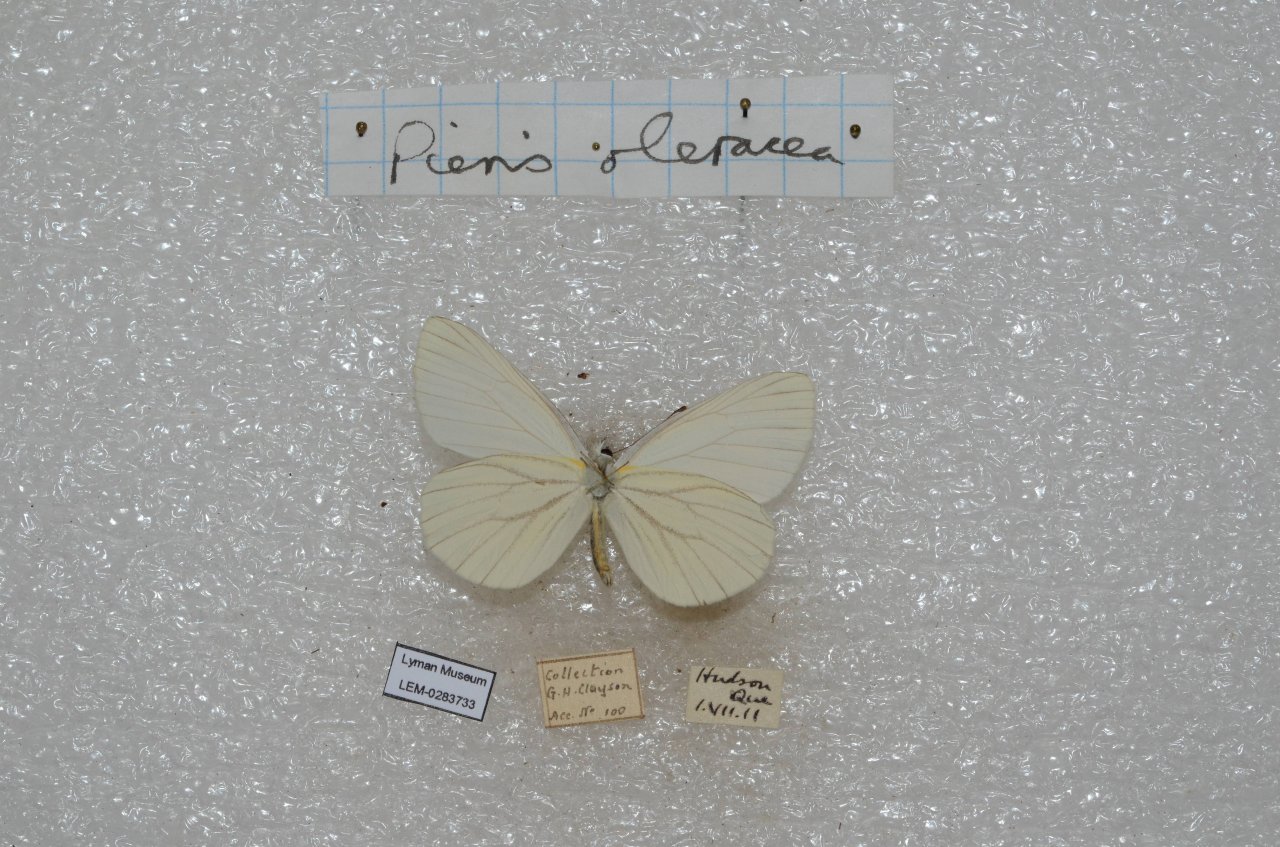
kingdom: Animalia
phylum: Arthropoda
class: Insecta
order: Lepidoptera
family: Pieridae
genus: Pieris
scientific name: Pieris oleracea
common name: Mustard White
